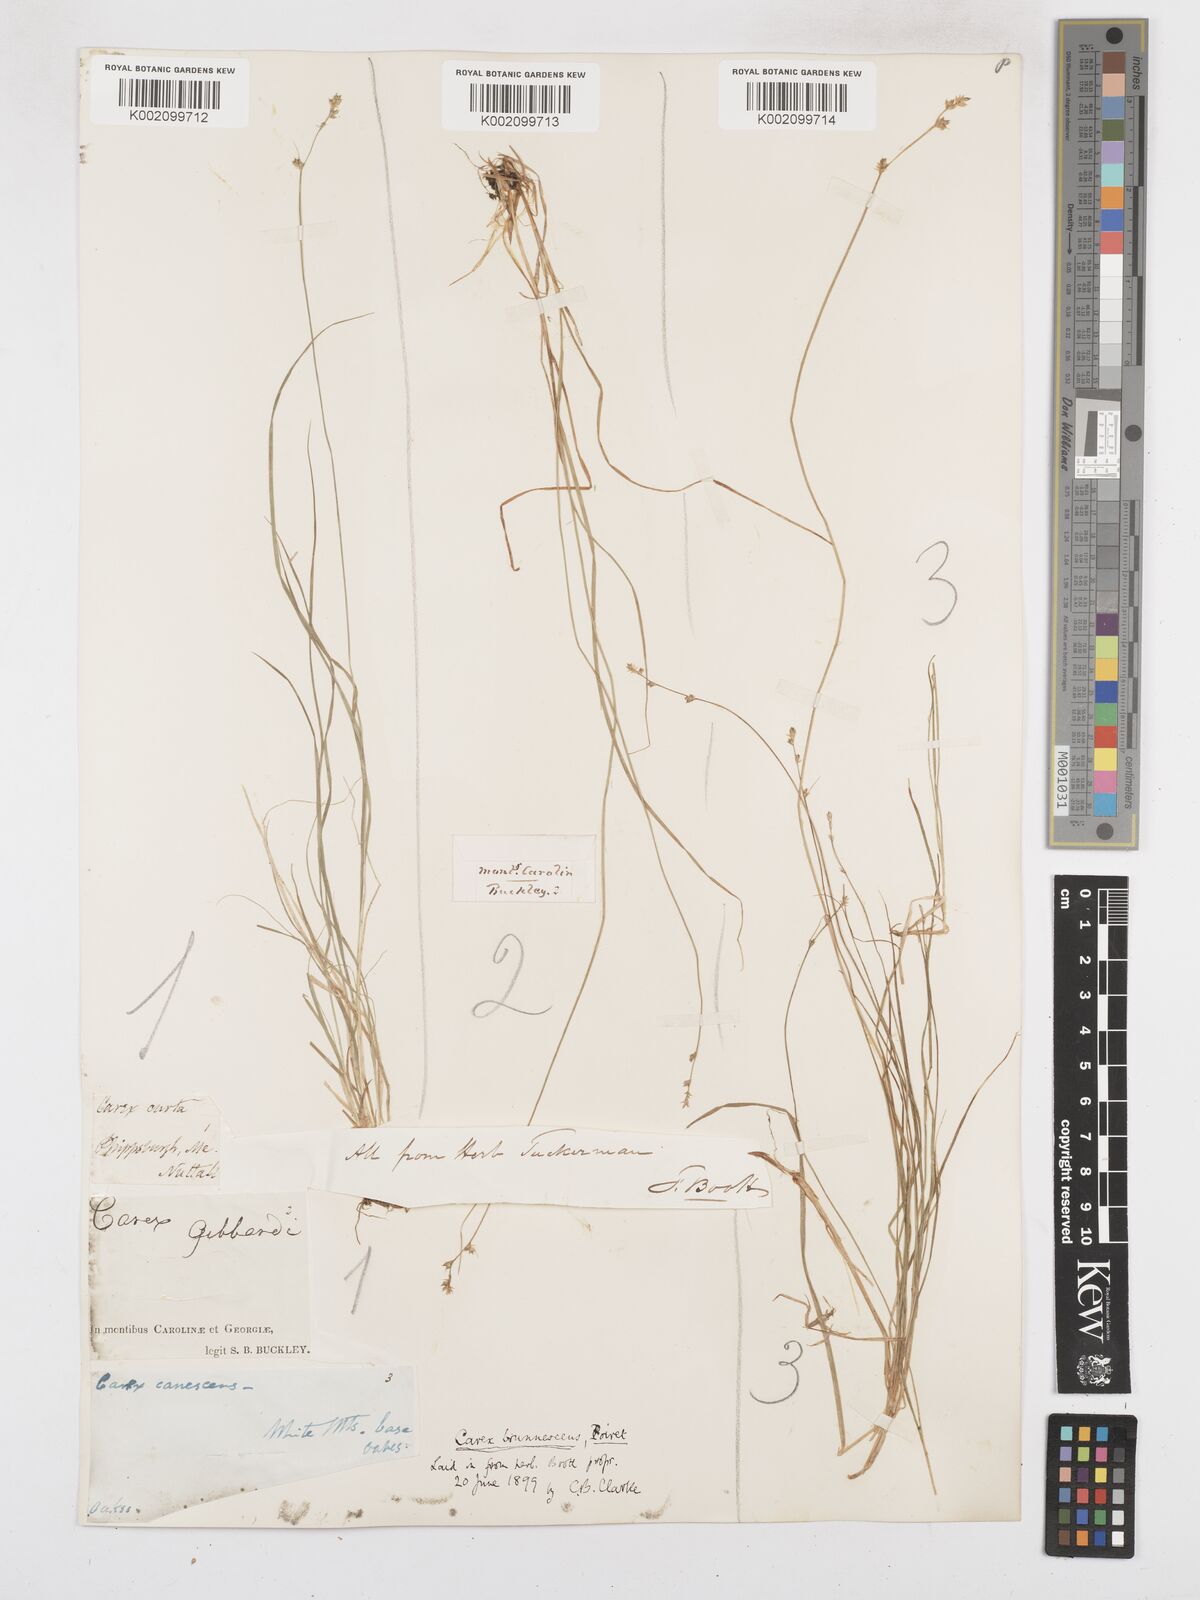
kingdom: Plantae
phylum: Tracheophyta
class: Liliopsida
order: Poales
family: Cyperaceae
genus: Carex
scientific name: Carex brunnescens
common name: Brown sedge
